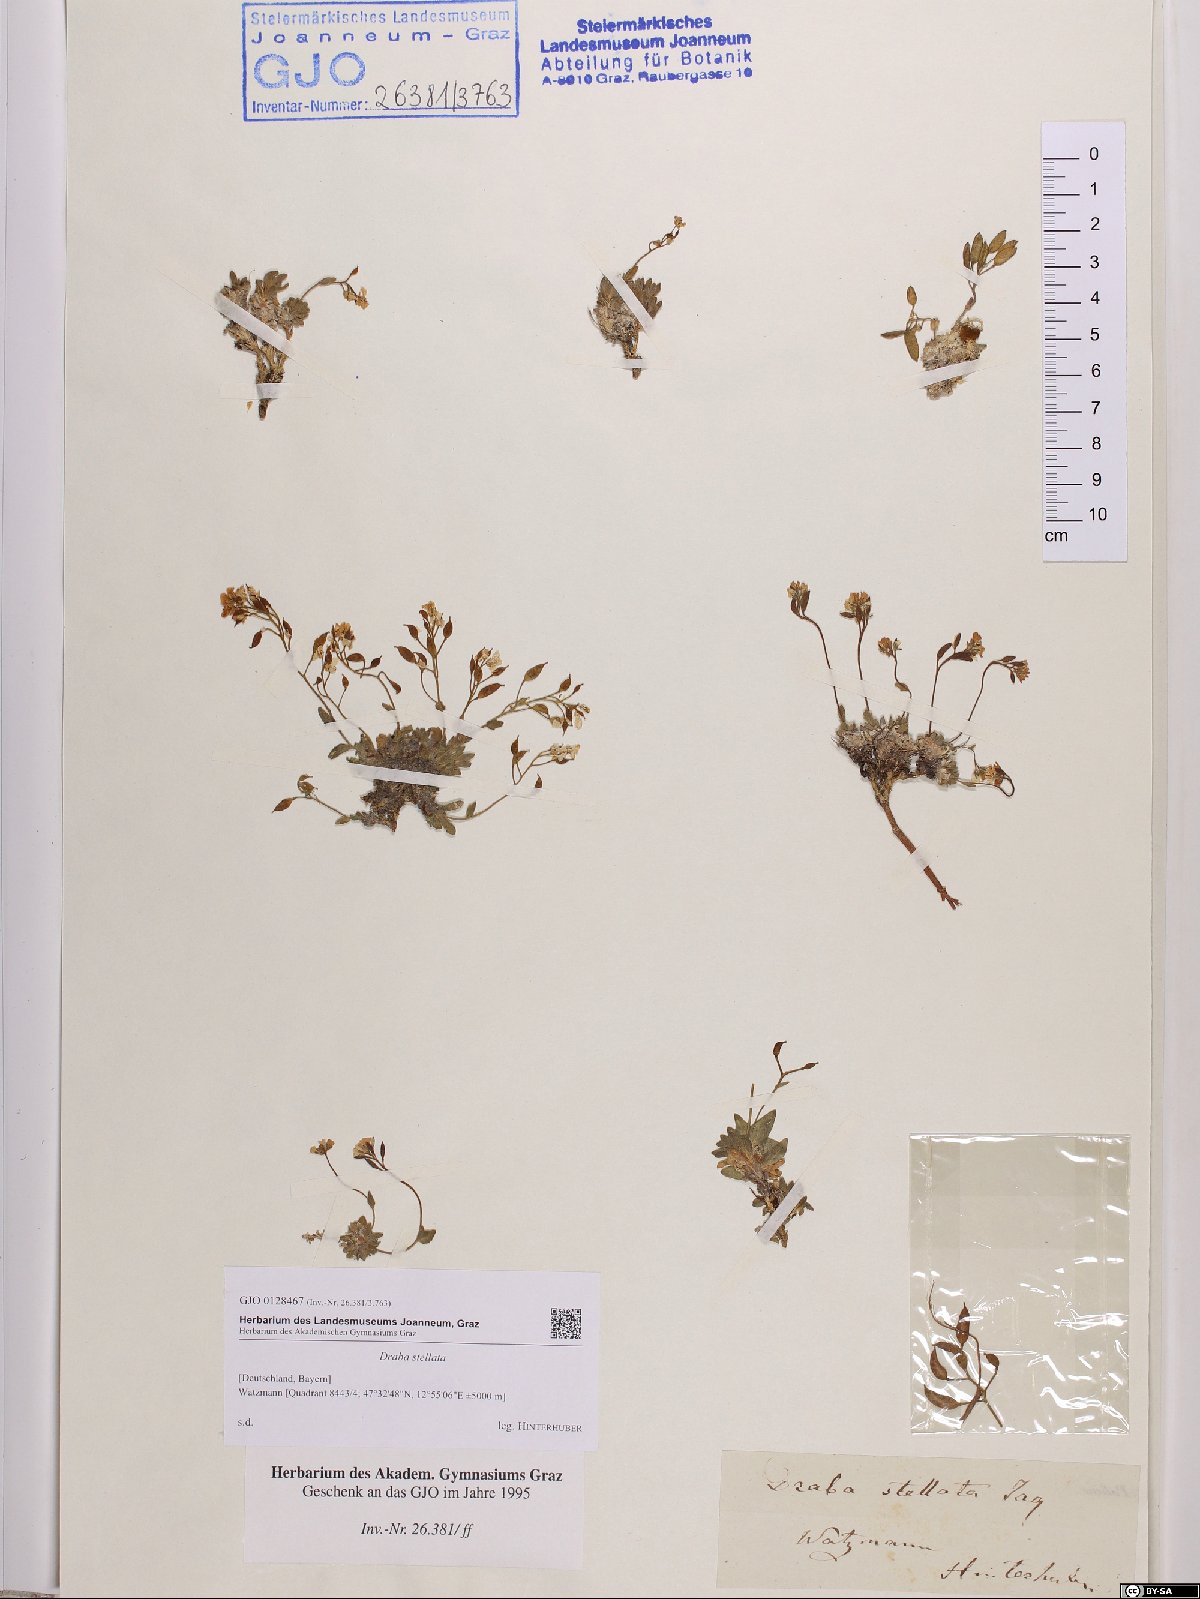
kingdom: Plantae
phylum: Tracheophyta
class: Magnoliopsida
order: Brassicales
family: Brassicaceae
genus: Draba
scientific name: Draba stellata
